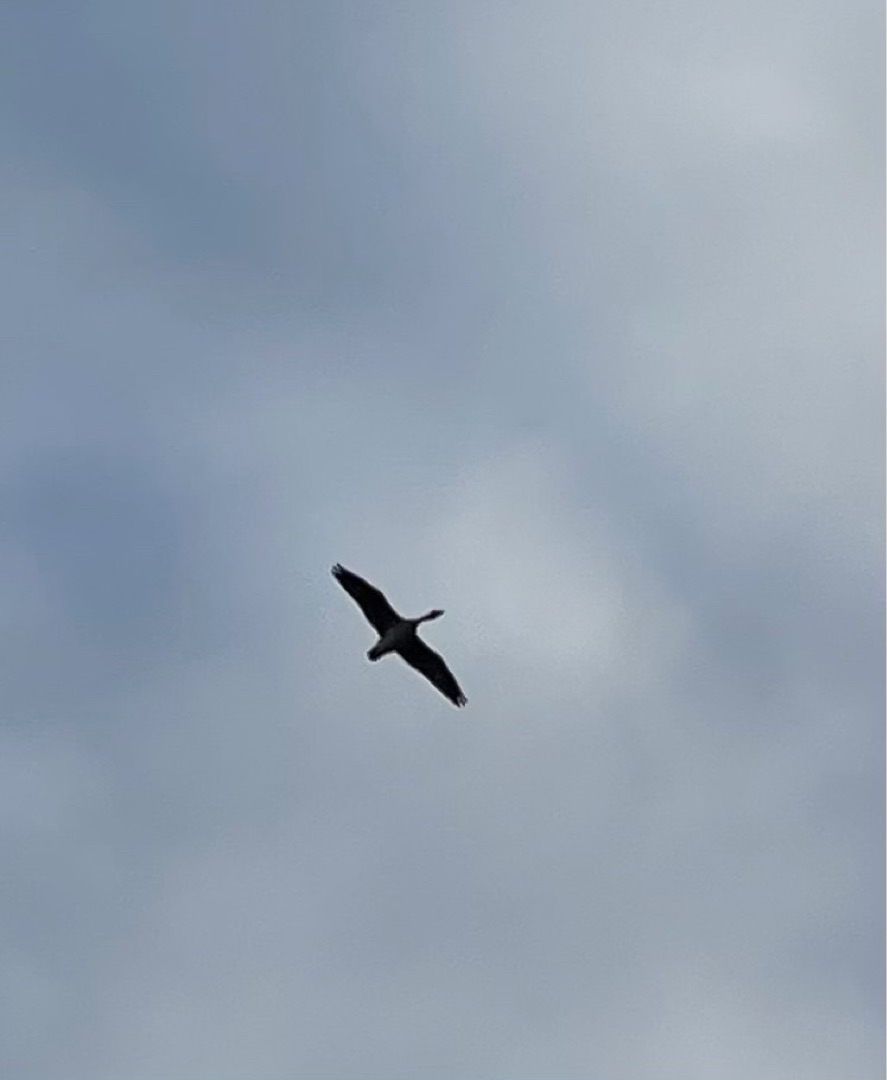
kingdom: Animalia
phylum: Chordata
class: Aves
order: Anseriformes
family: Anatidae
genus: Anser
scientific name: Anser anser
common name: Grågås
